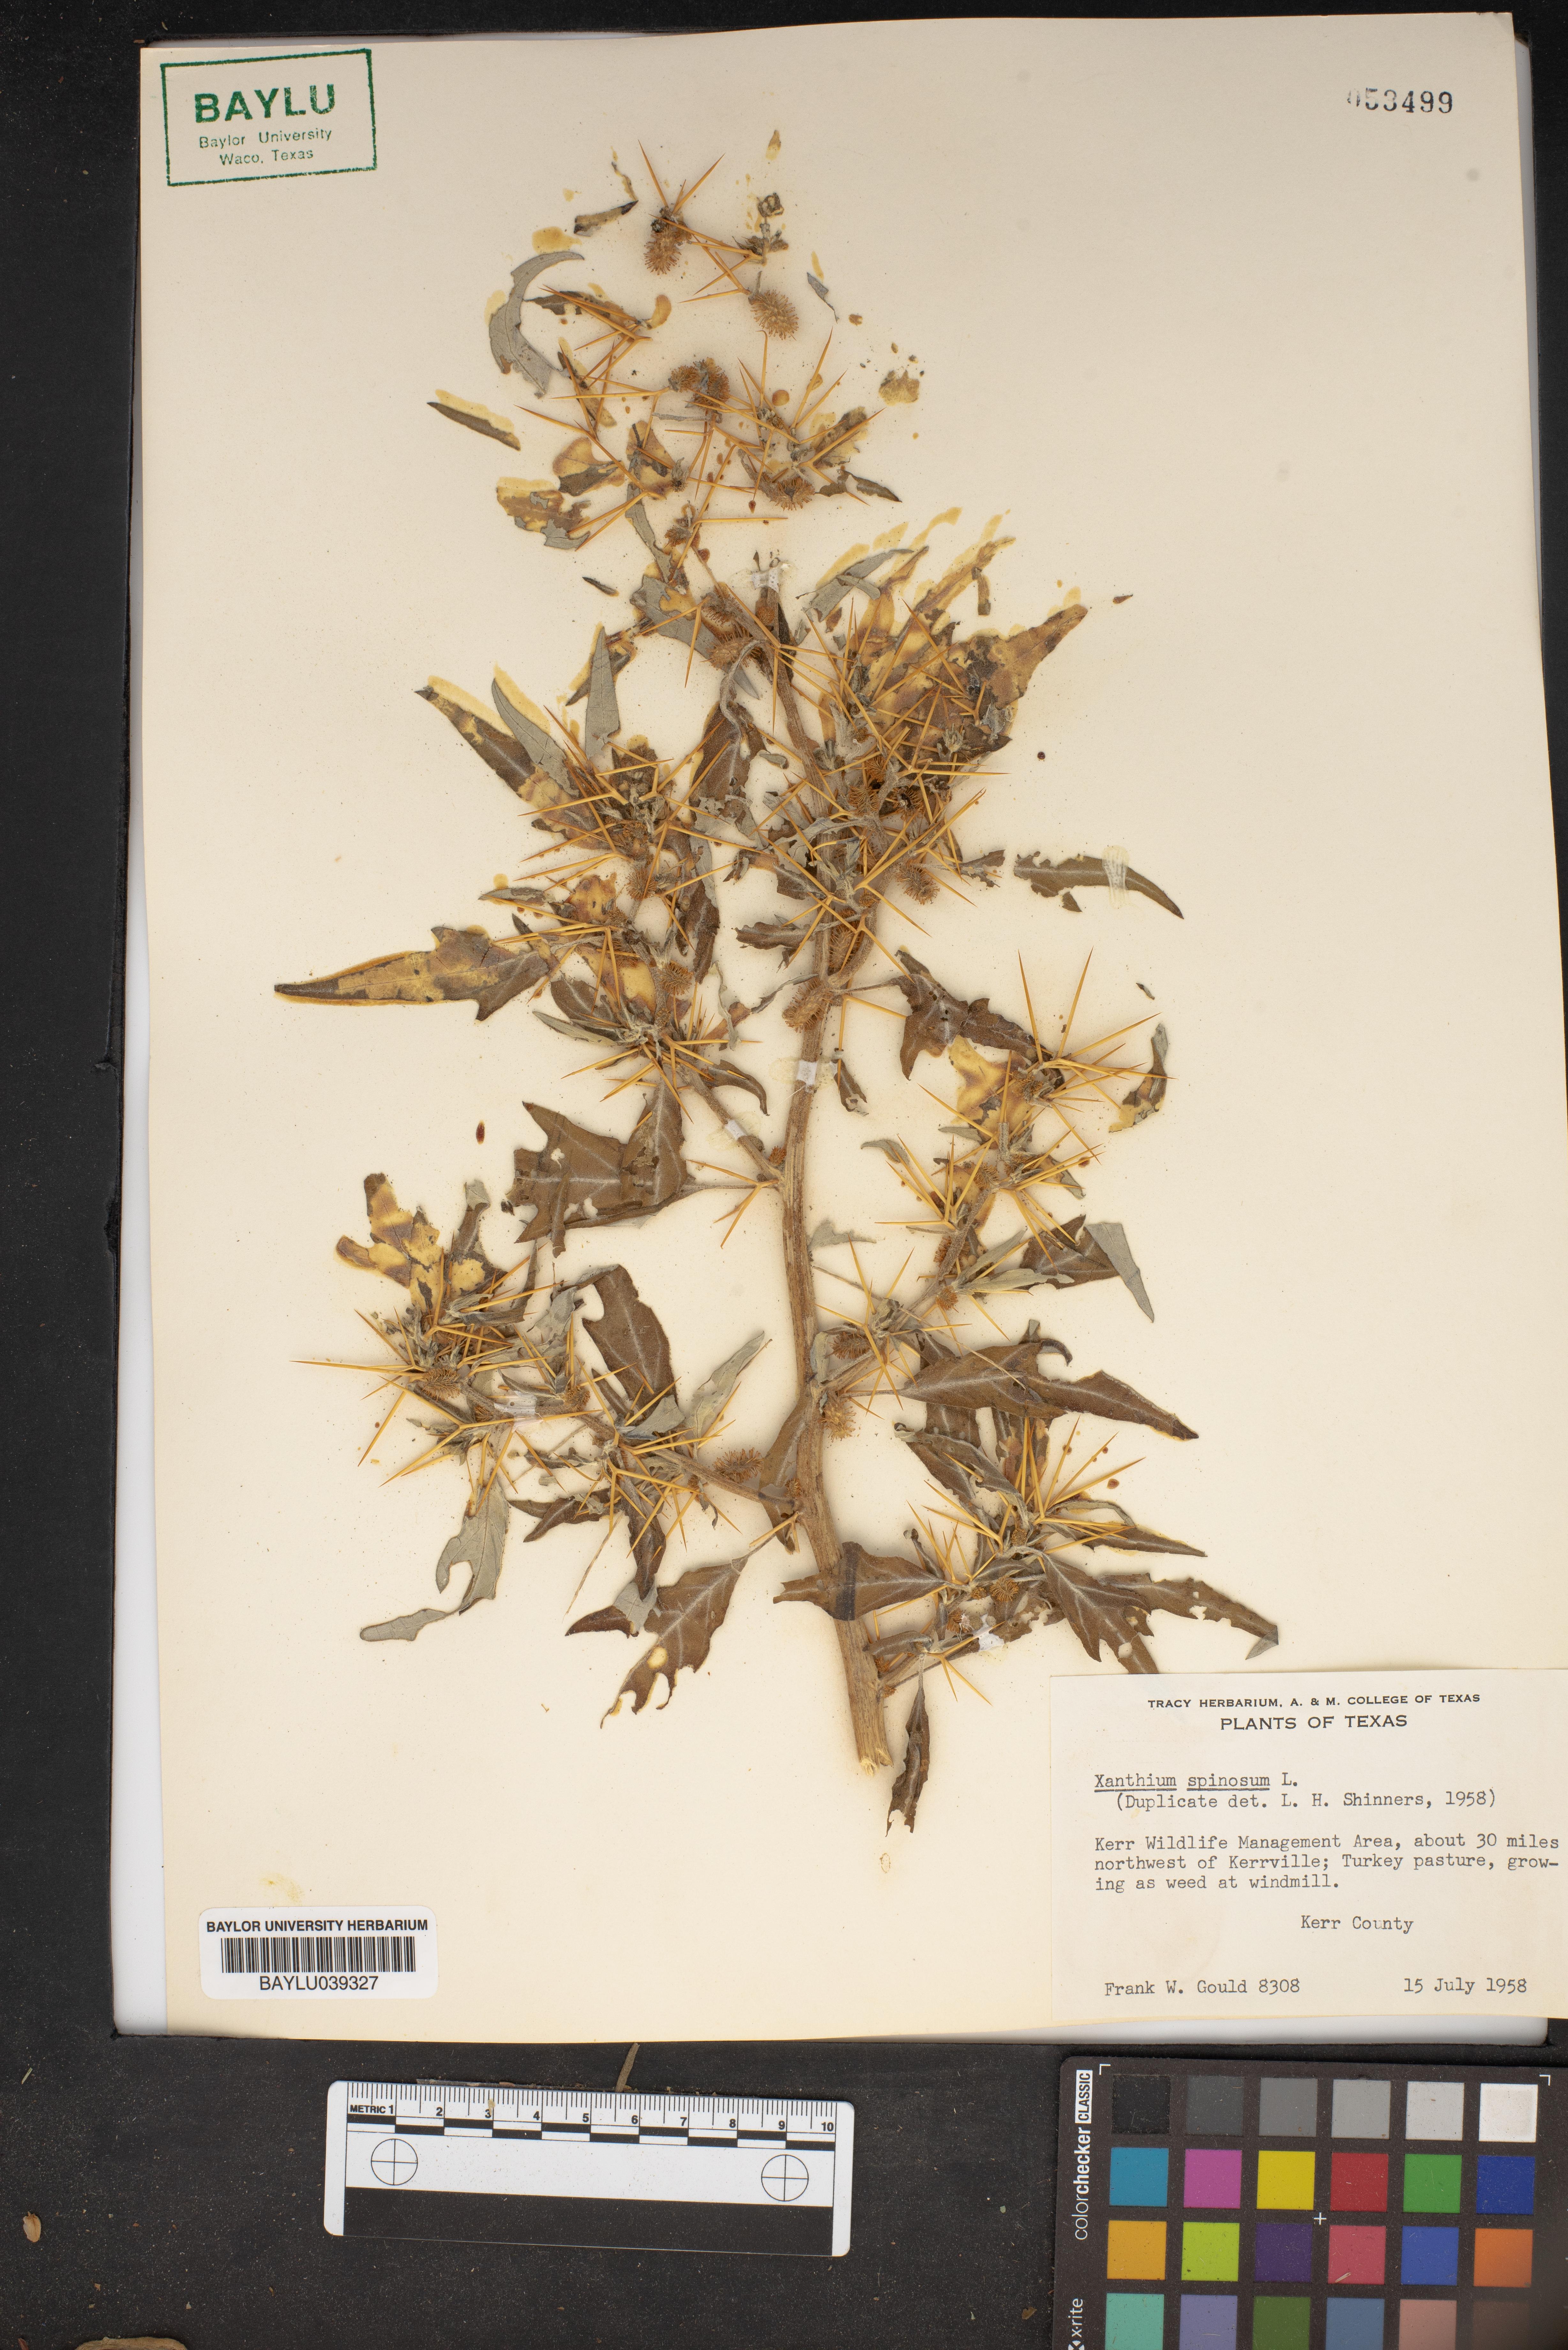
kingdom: Plantae
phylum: Tracheophyta
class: Magnoliopsida
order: Asterales
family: Asteraceae
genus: Xanthium
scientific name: Xanthium spinosum
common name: Spiny cocklebur
